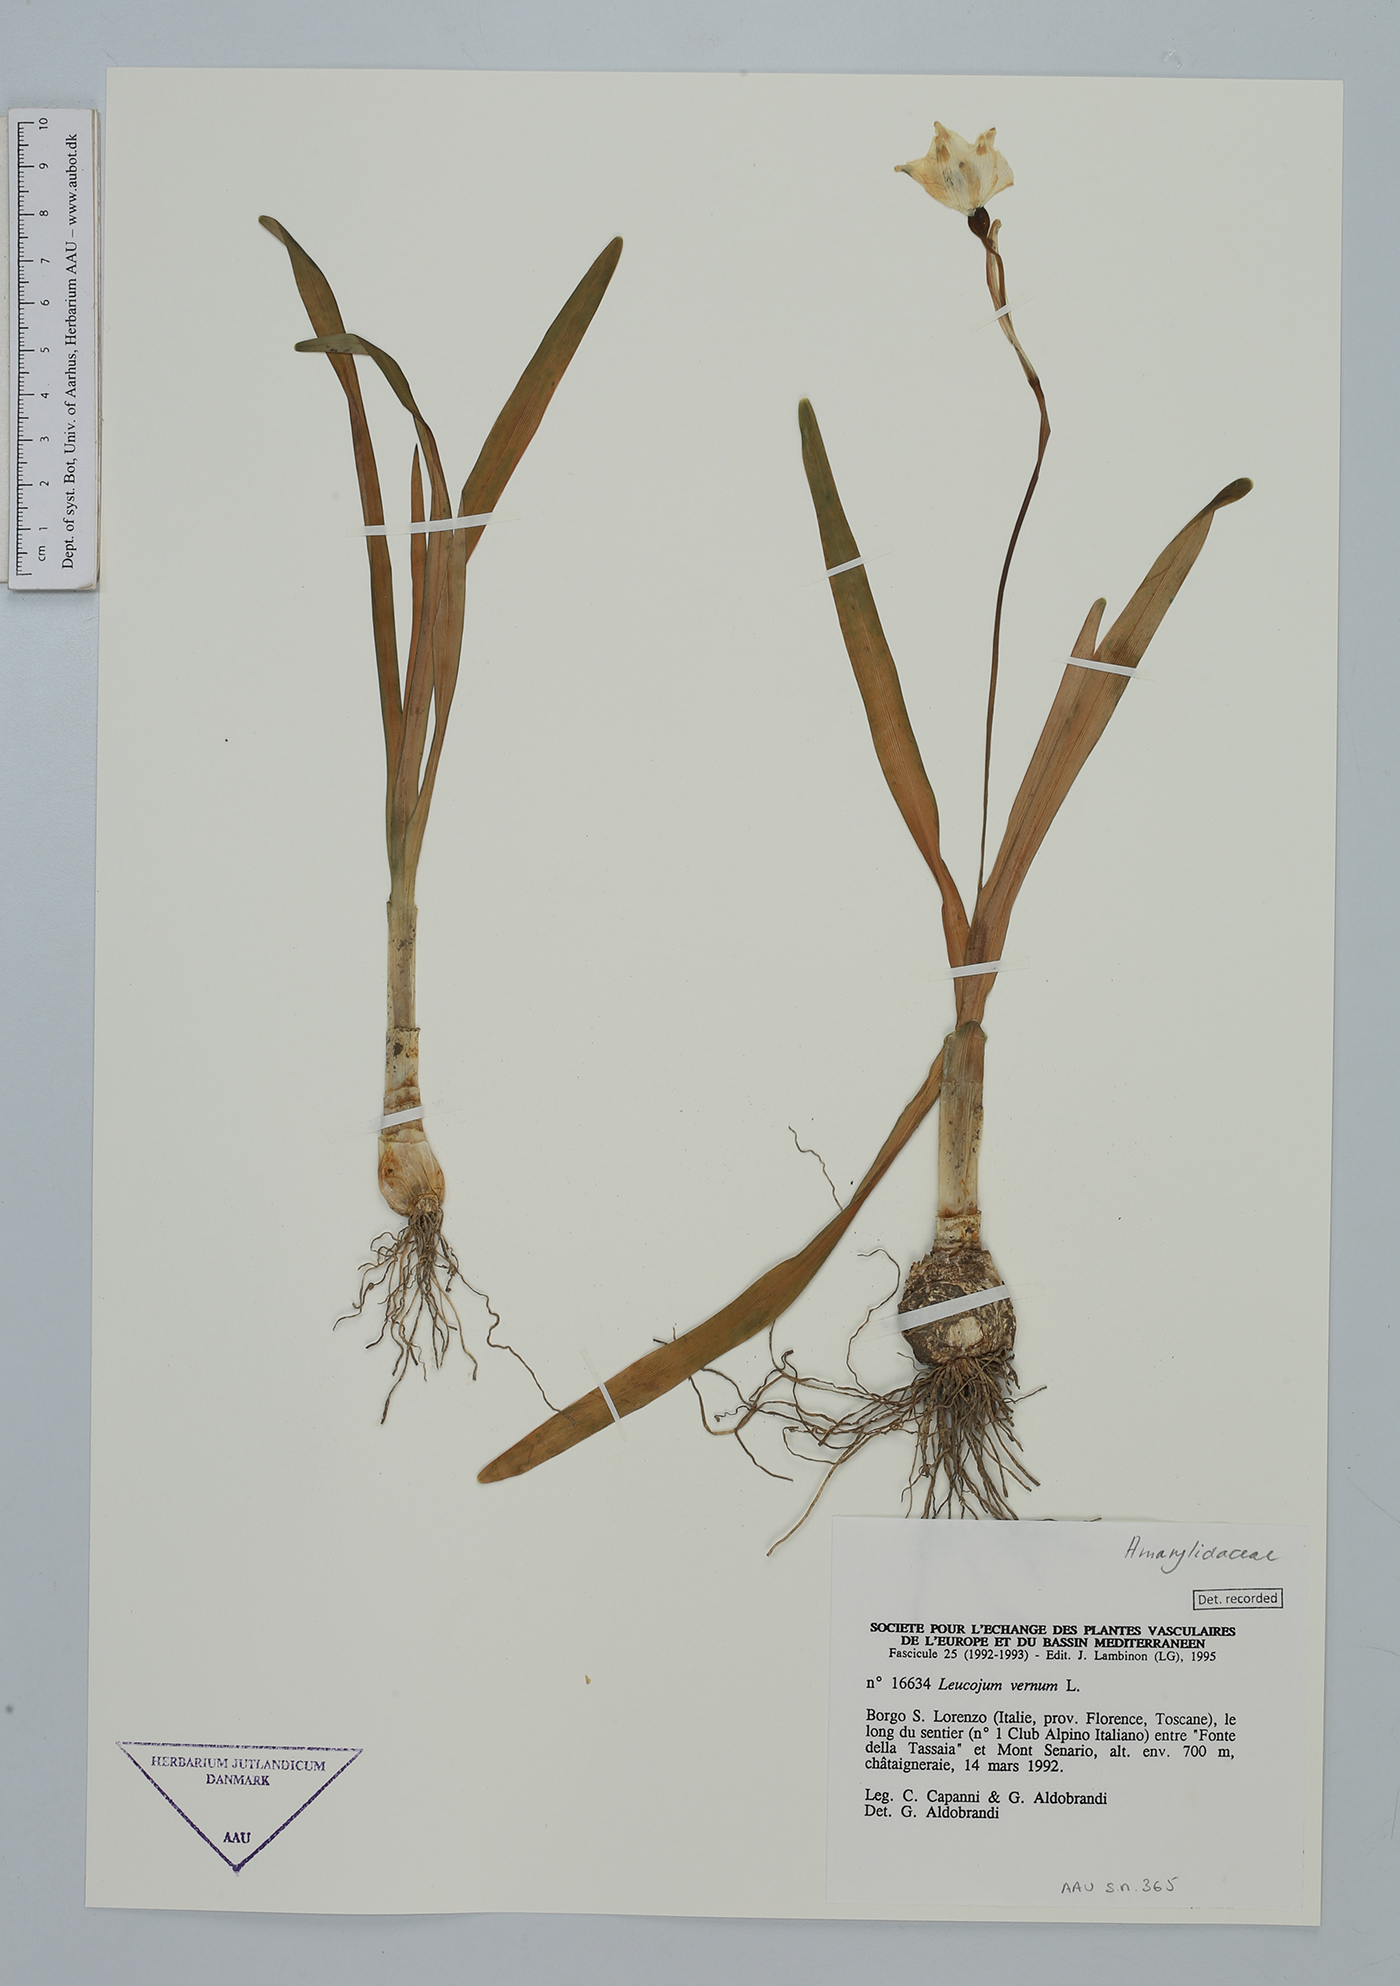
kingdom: Plantae
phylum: Tracheophyta
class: Liliopsida
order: Asparagales
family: Amaryllidaceae
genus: Leucojum
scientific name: Leucojum vernum
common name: Spring snowflake
